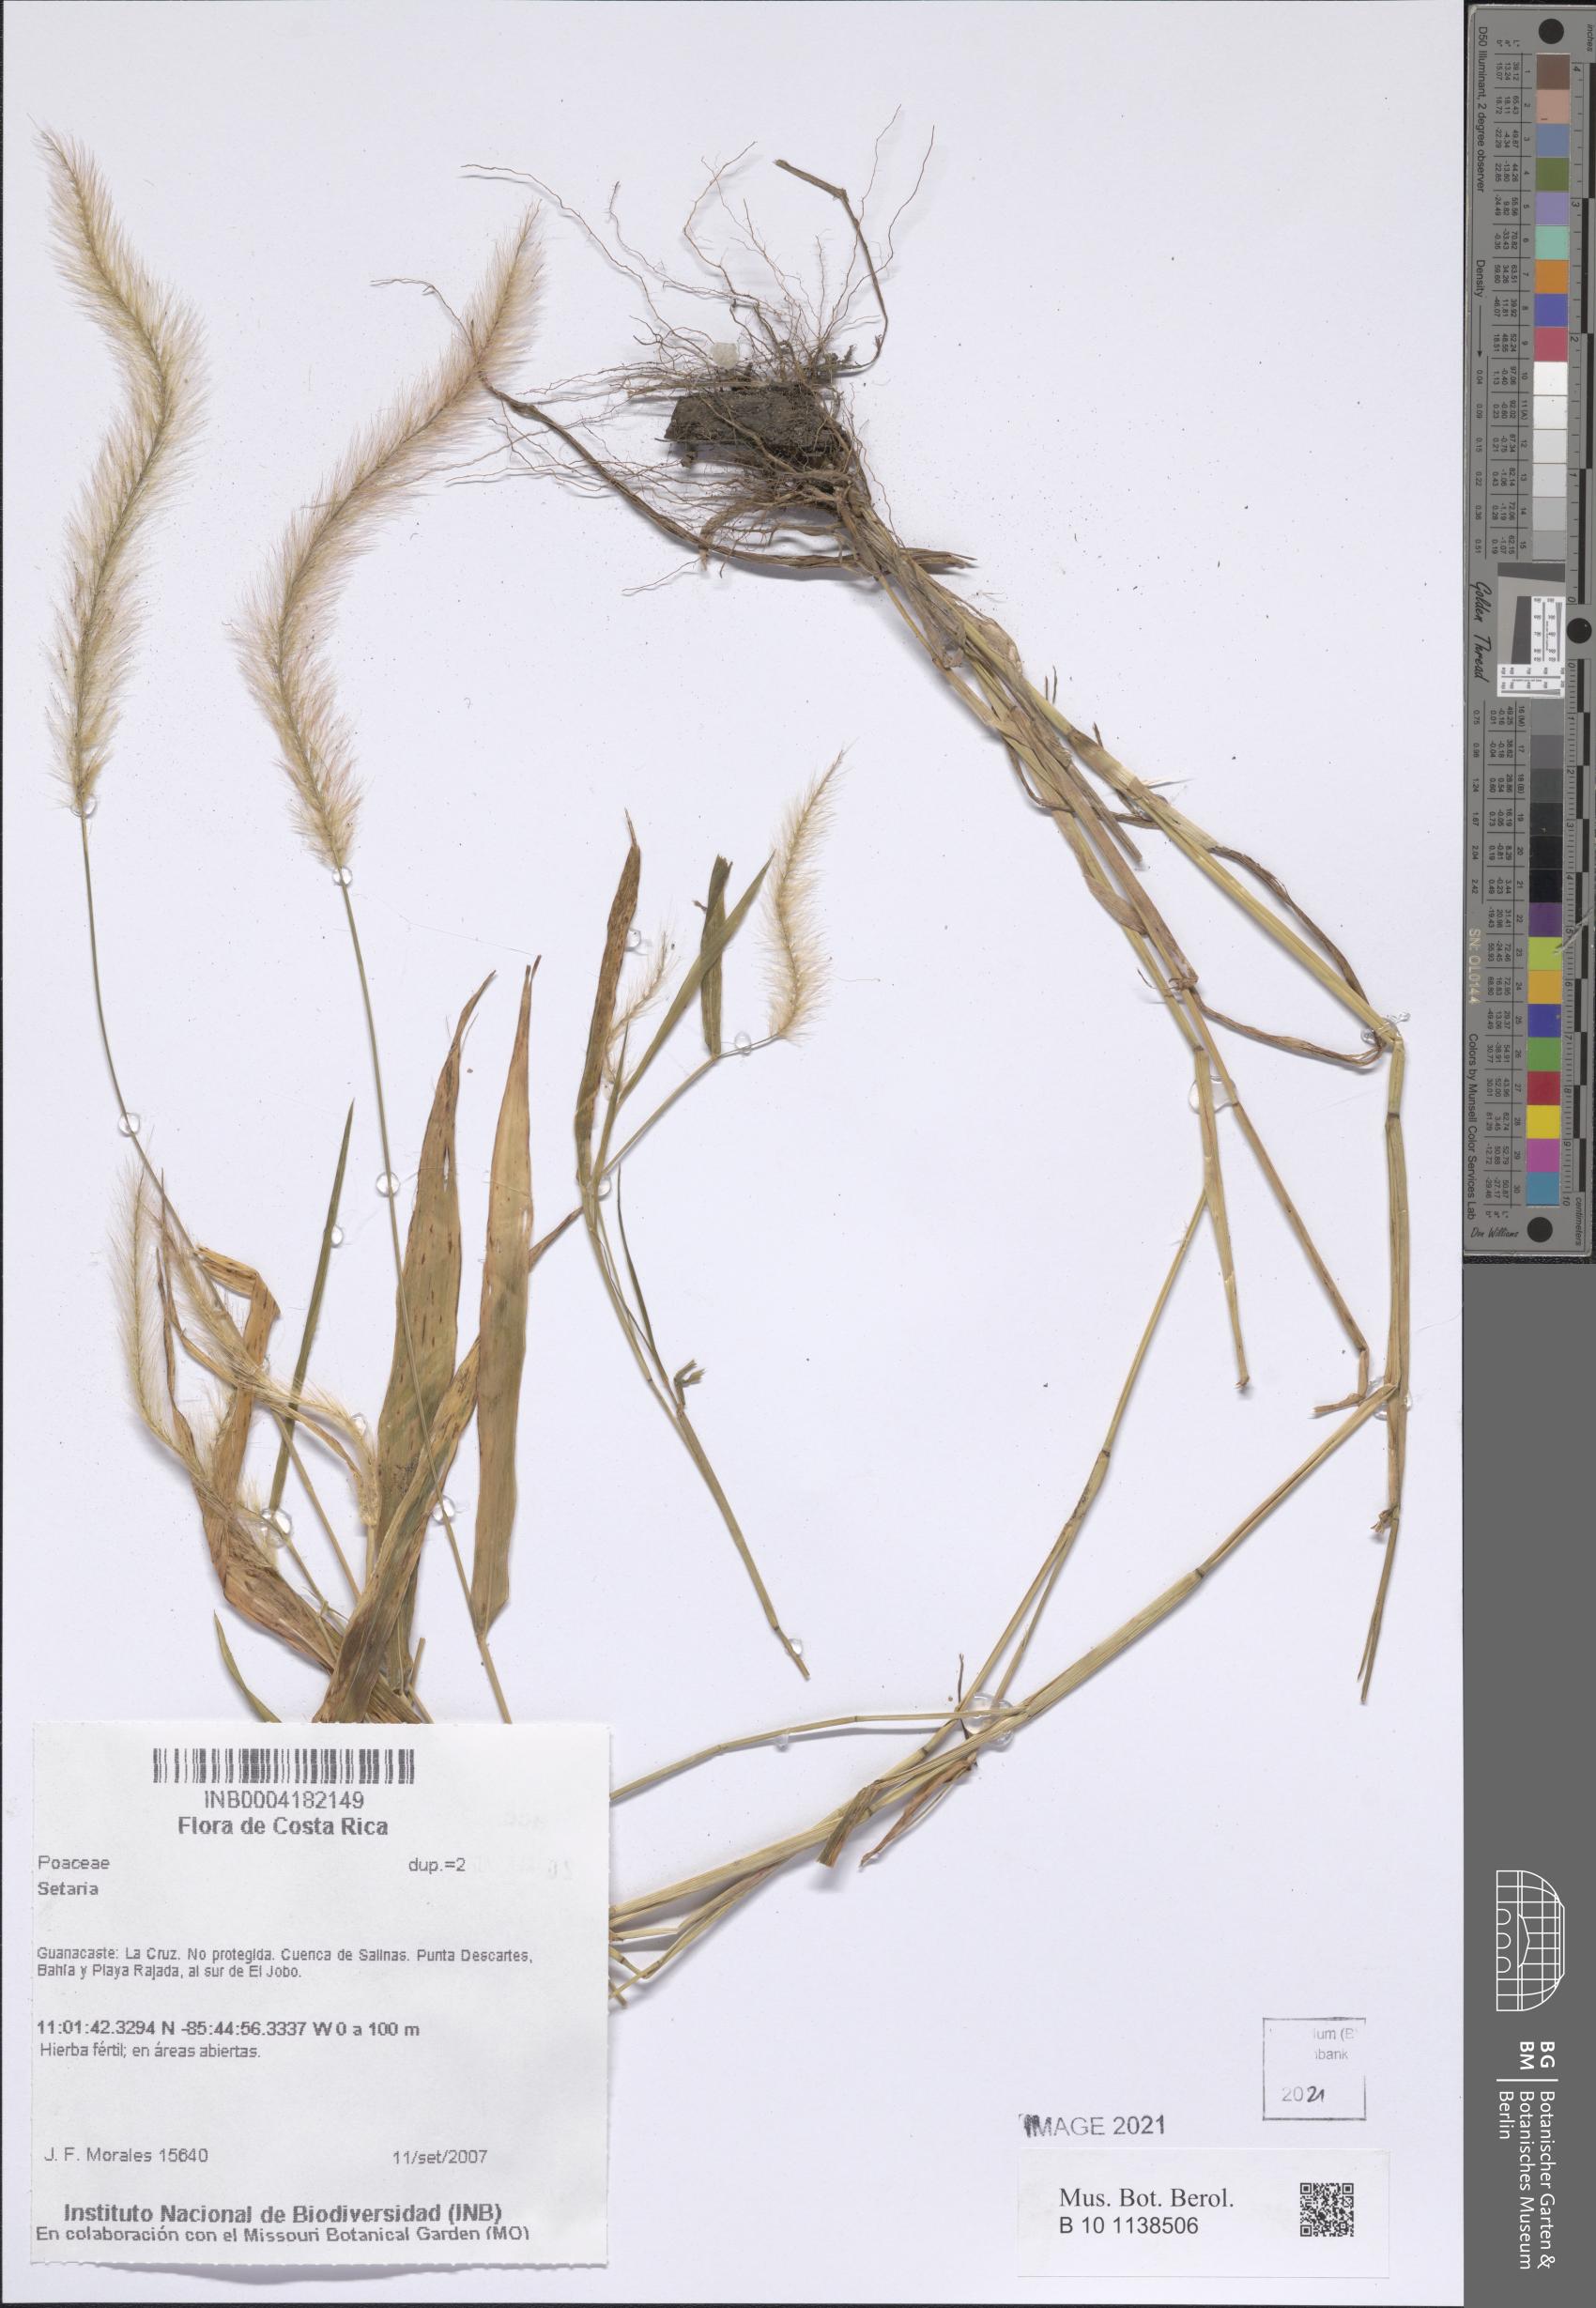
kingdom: Plantae
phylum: Tracheophyta
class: Liliopsida
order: Poales
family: Poaceae
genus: Setaria
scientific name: Setaria liebmannii
